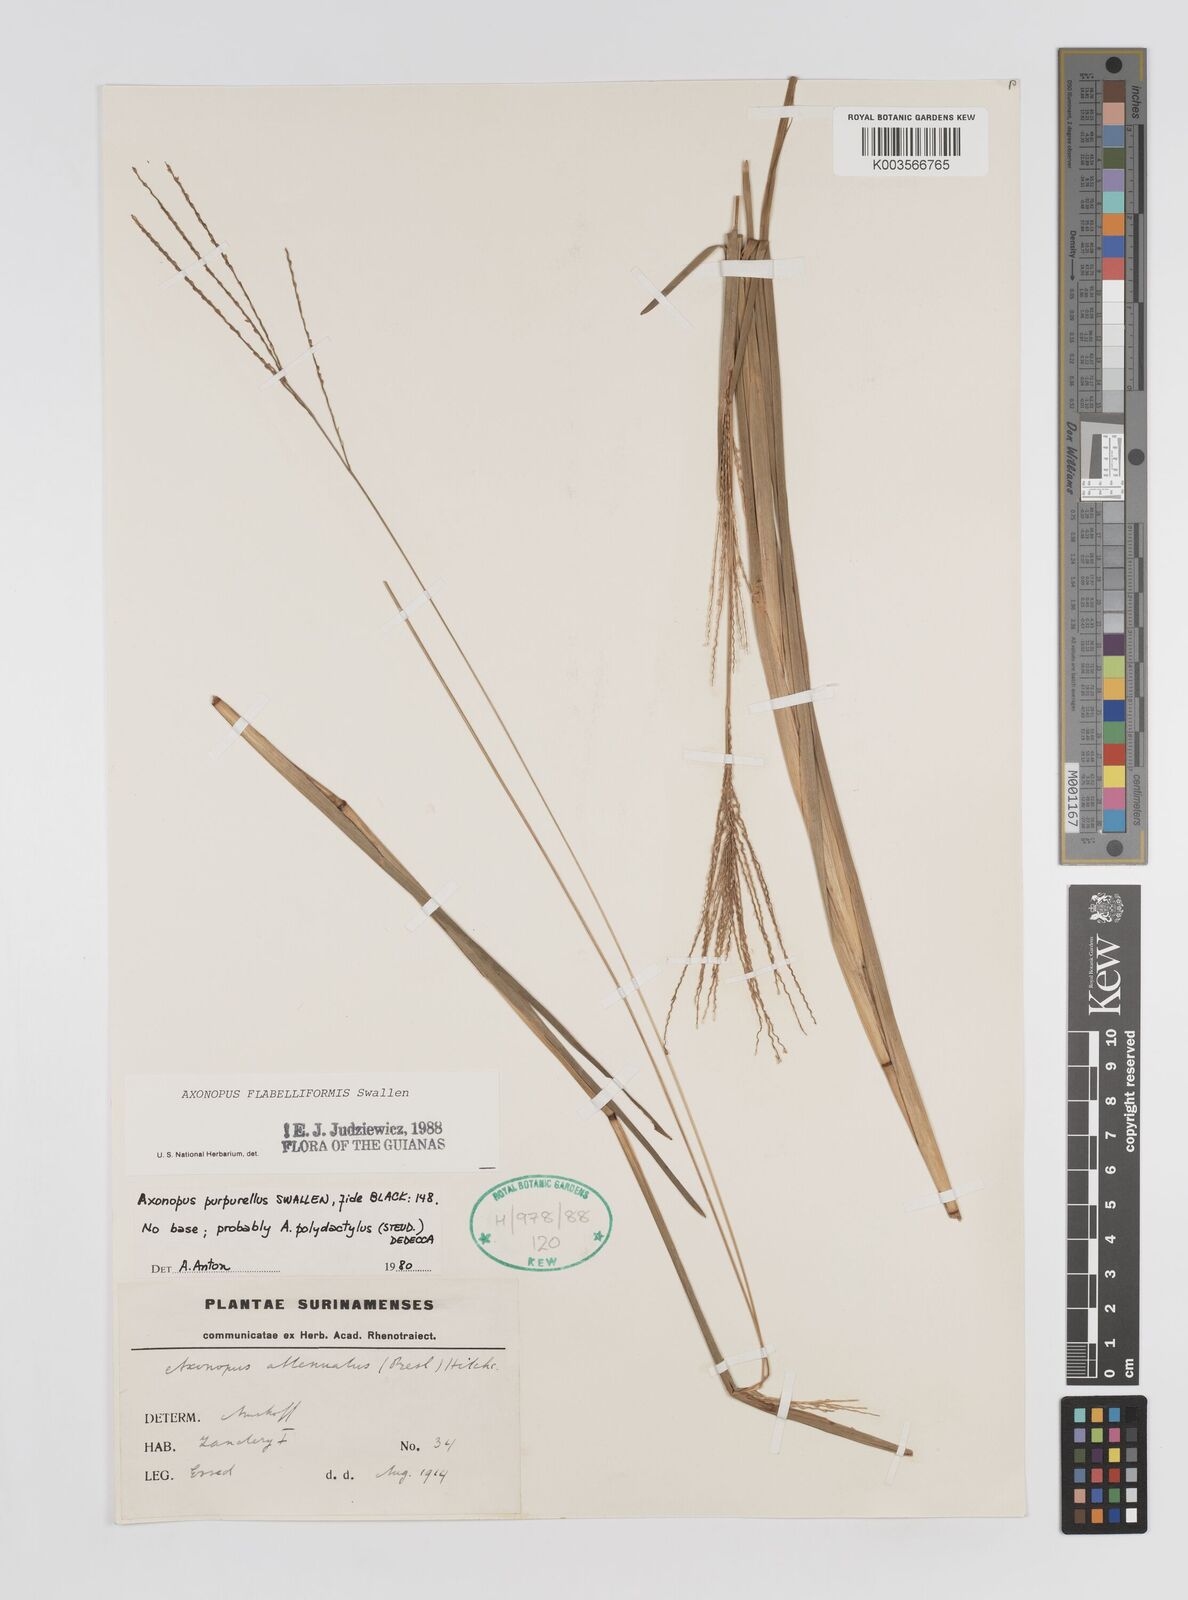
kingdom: Plantae
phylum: Tracheophyta
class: Liliopsida
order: Poales
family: Poaceae
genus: Axonopus
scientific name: Axonopus flabelliformis
